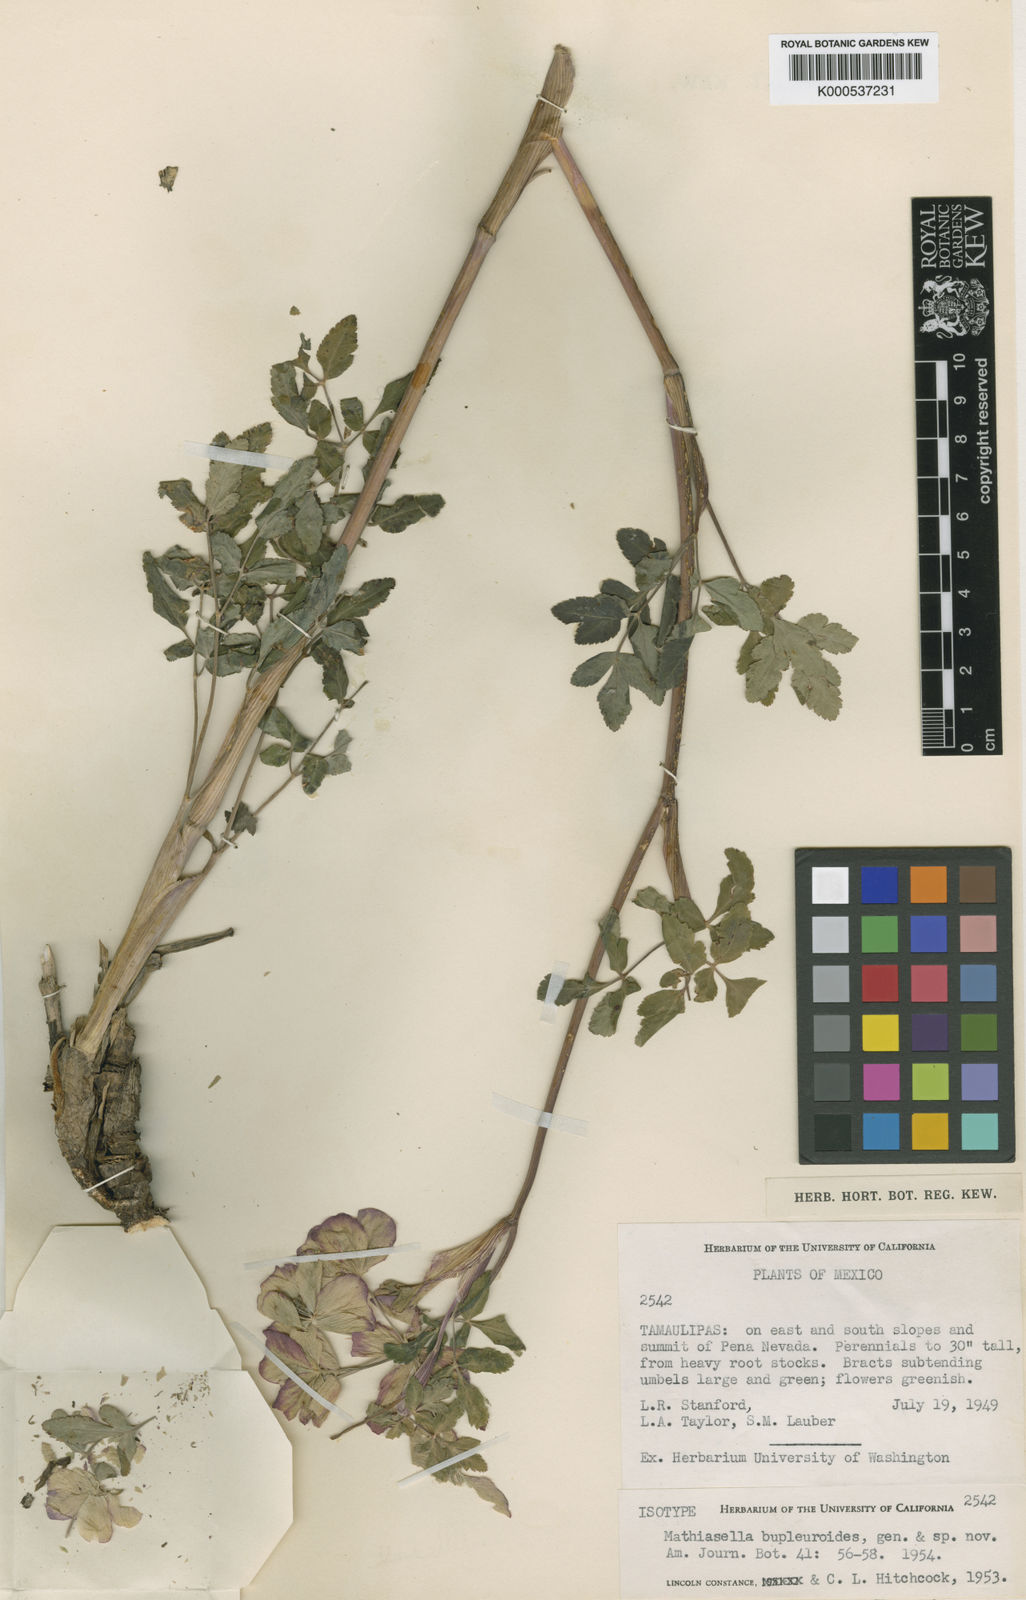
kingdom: Plantae
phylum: Tracheophyta
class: Magnoliopsida
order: Apiales
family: Apiaceae
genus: Mathiasella
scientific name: Mathiasella bupleuroides
